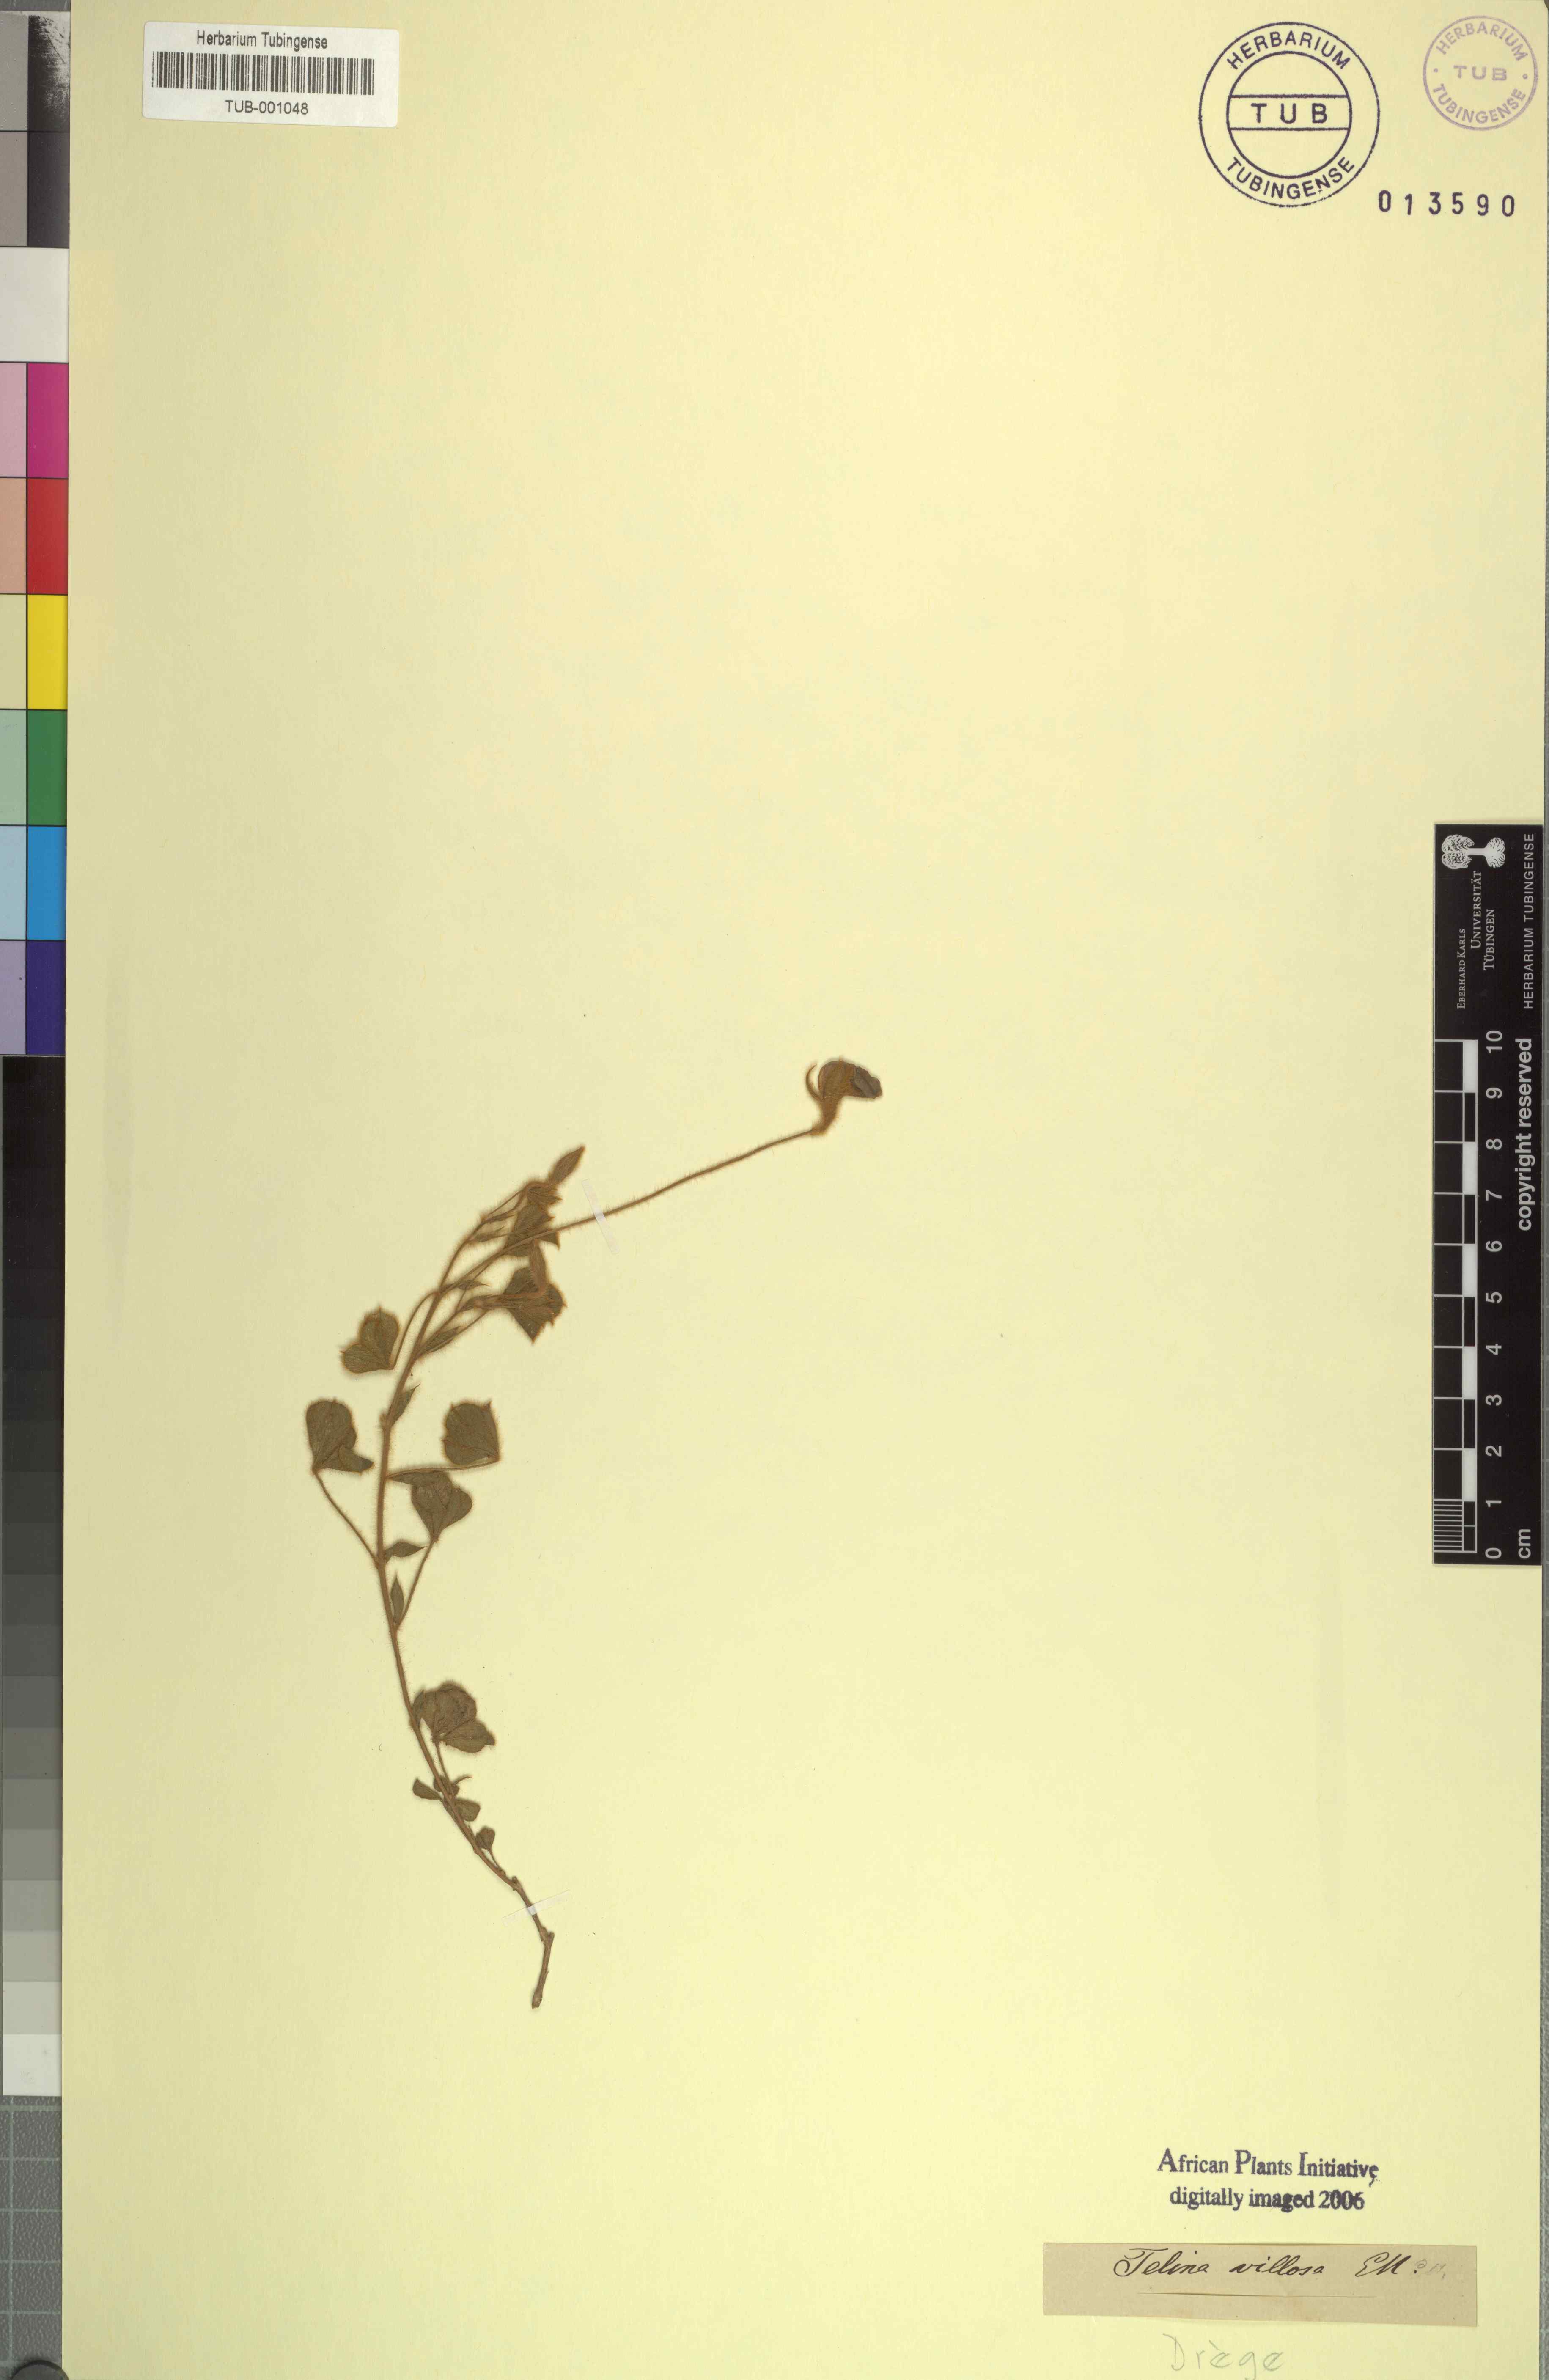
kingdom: Plantae
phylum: Tracheophyta
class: Magnoliopsida
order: Fabales
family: Fabaceae
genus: Lotononis
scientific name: Lotononis villosa
